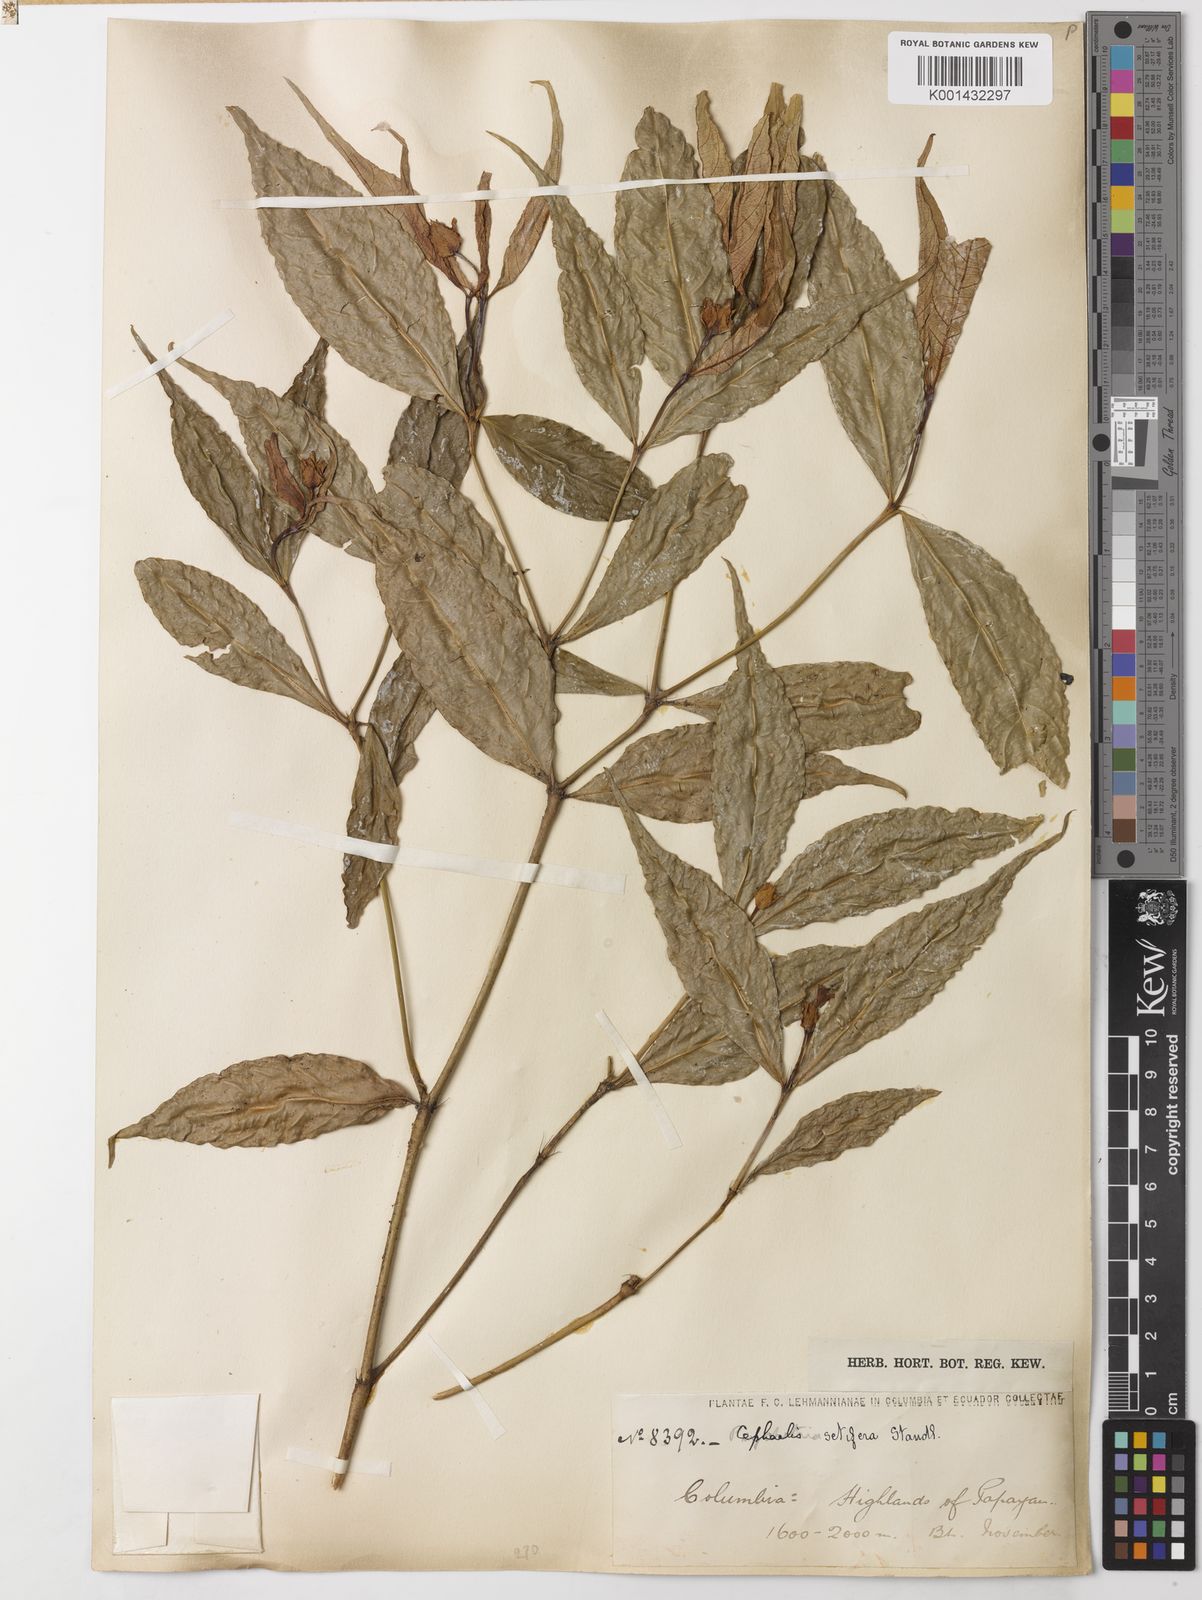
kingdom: Plantae
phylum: Tracheophyta
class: Magnoliopsida
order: Gentianales
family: Rubiaceae
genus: Palicourea
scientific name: Palicourea violacea
